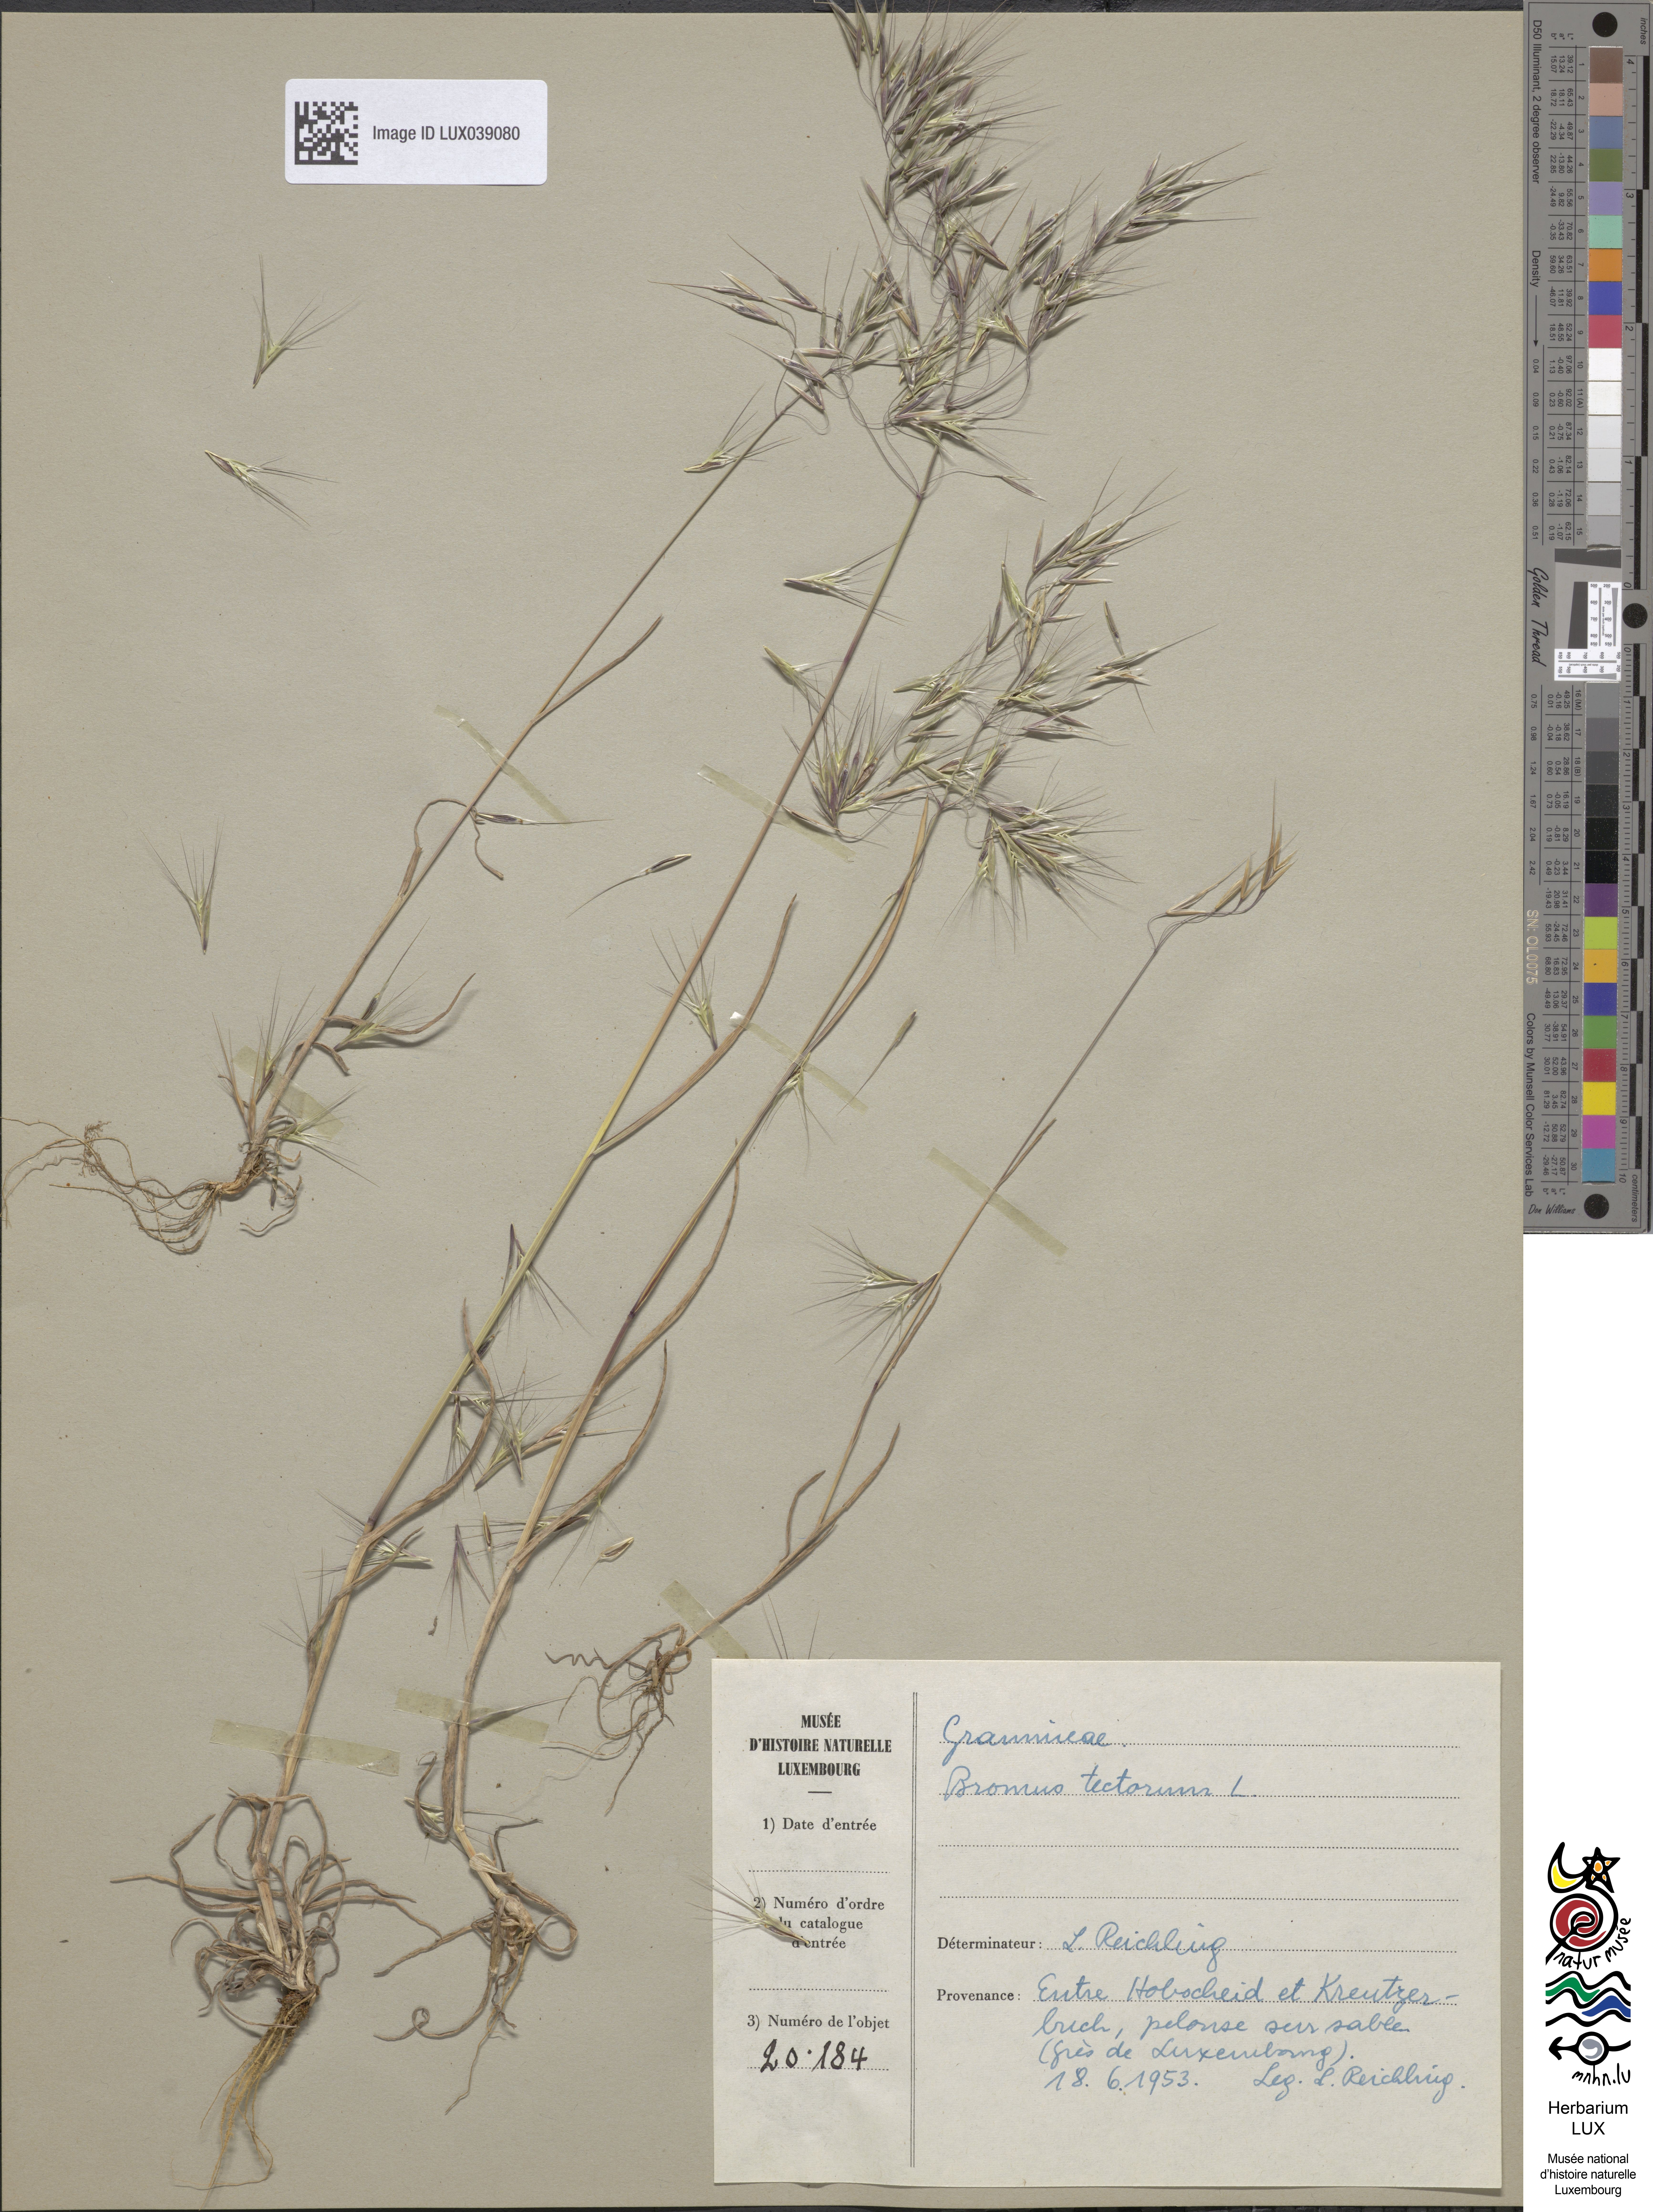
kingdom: Plantae
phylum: Tracheophyta
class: Liliopsida
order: Poales
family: Poaceae
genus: Bromus
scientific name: Bromus tectorum
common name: Cheatgrass
